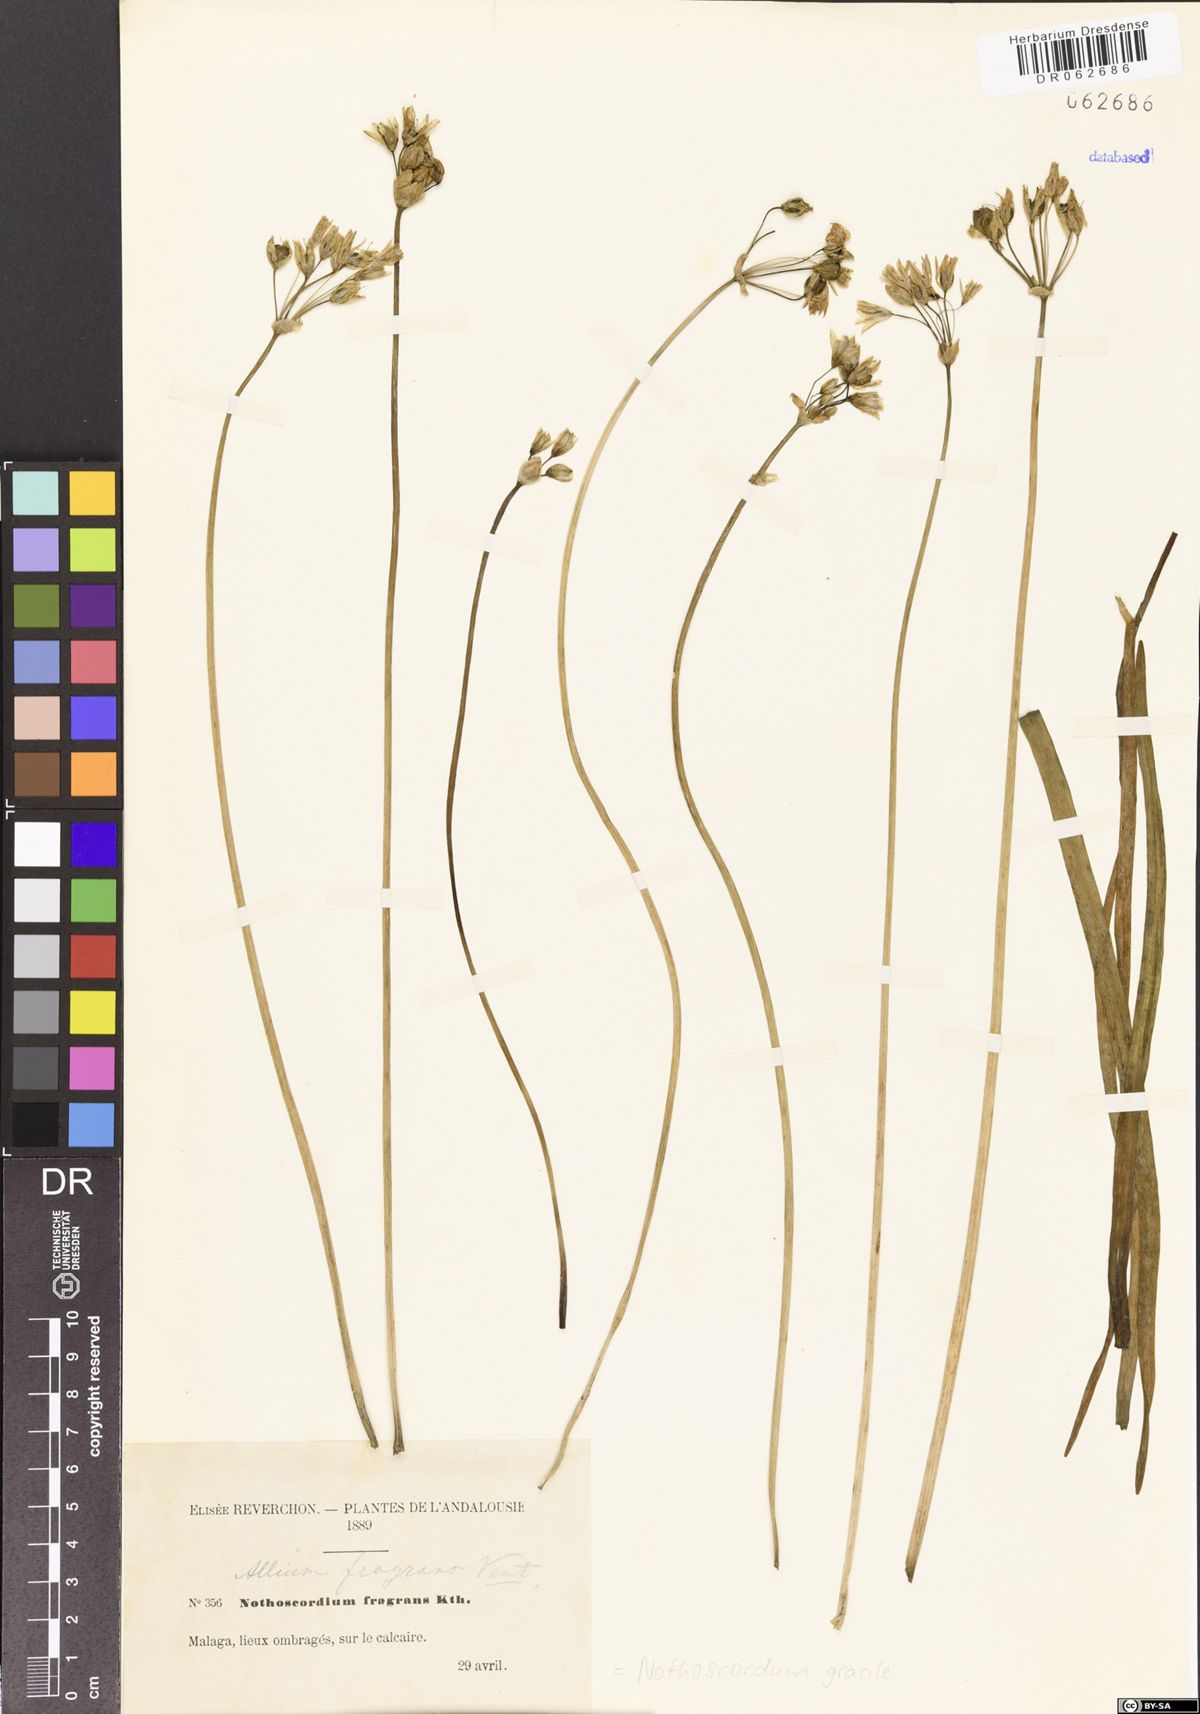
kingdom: Plantae
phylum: Tracheophyta
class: Liliopsida
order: Asparagales
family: Amaryllidaceae
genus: Nothoscordum
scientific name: Nothoscordum gracile
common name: Slender false garlic
